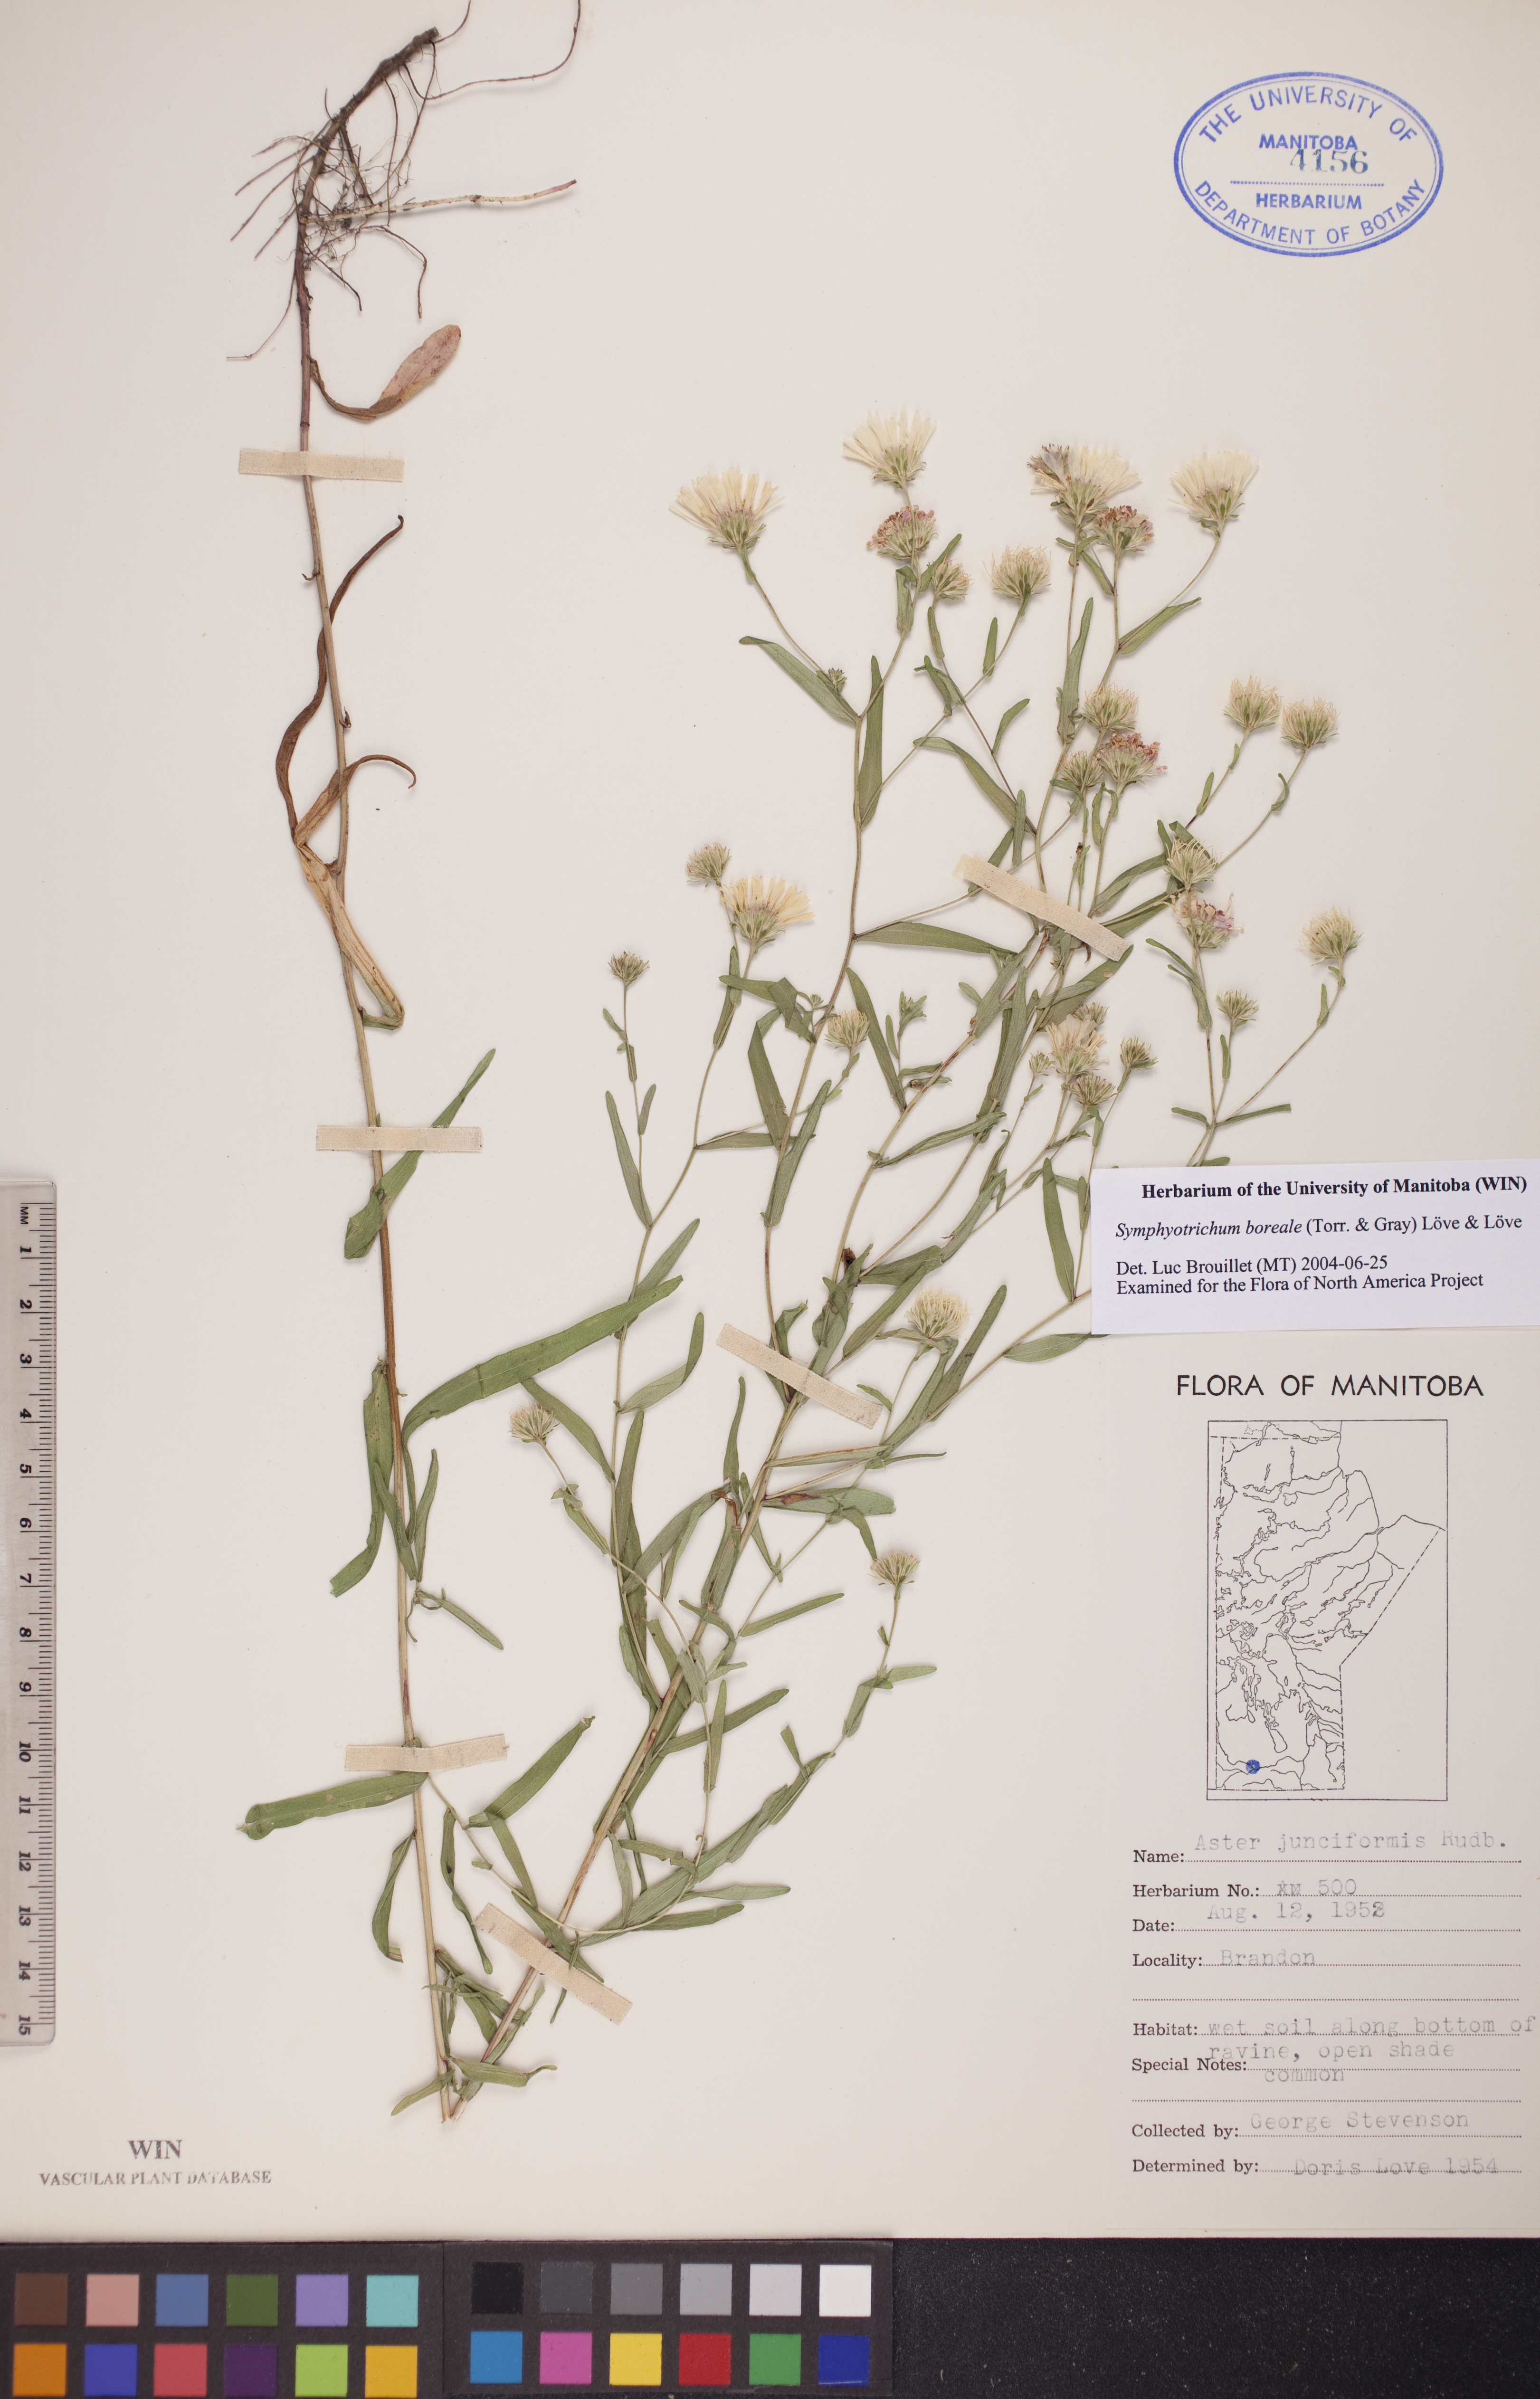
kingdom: Plantae
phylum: Tracheophyta
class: Magnoliopsida
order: Asterales
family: Asteraceae
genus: Symphyotrichum
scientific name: Symphyotrichum boreale
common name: Northern bog aster
